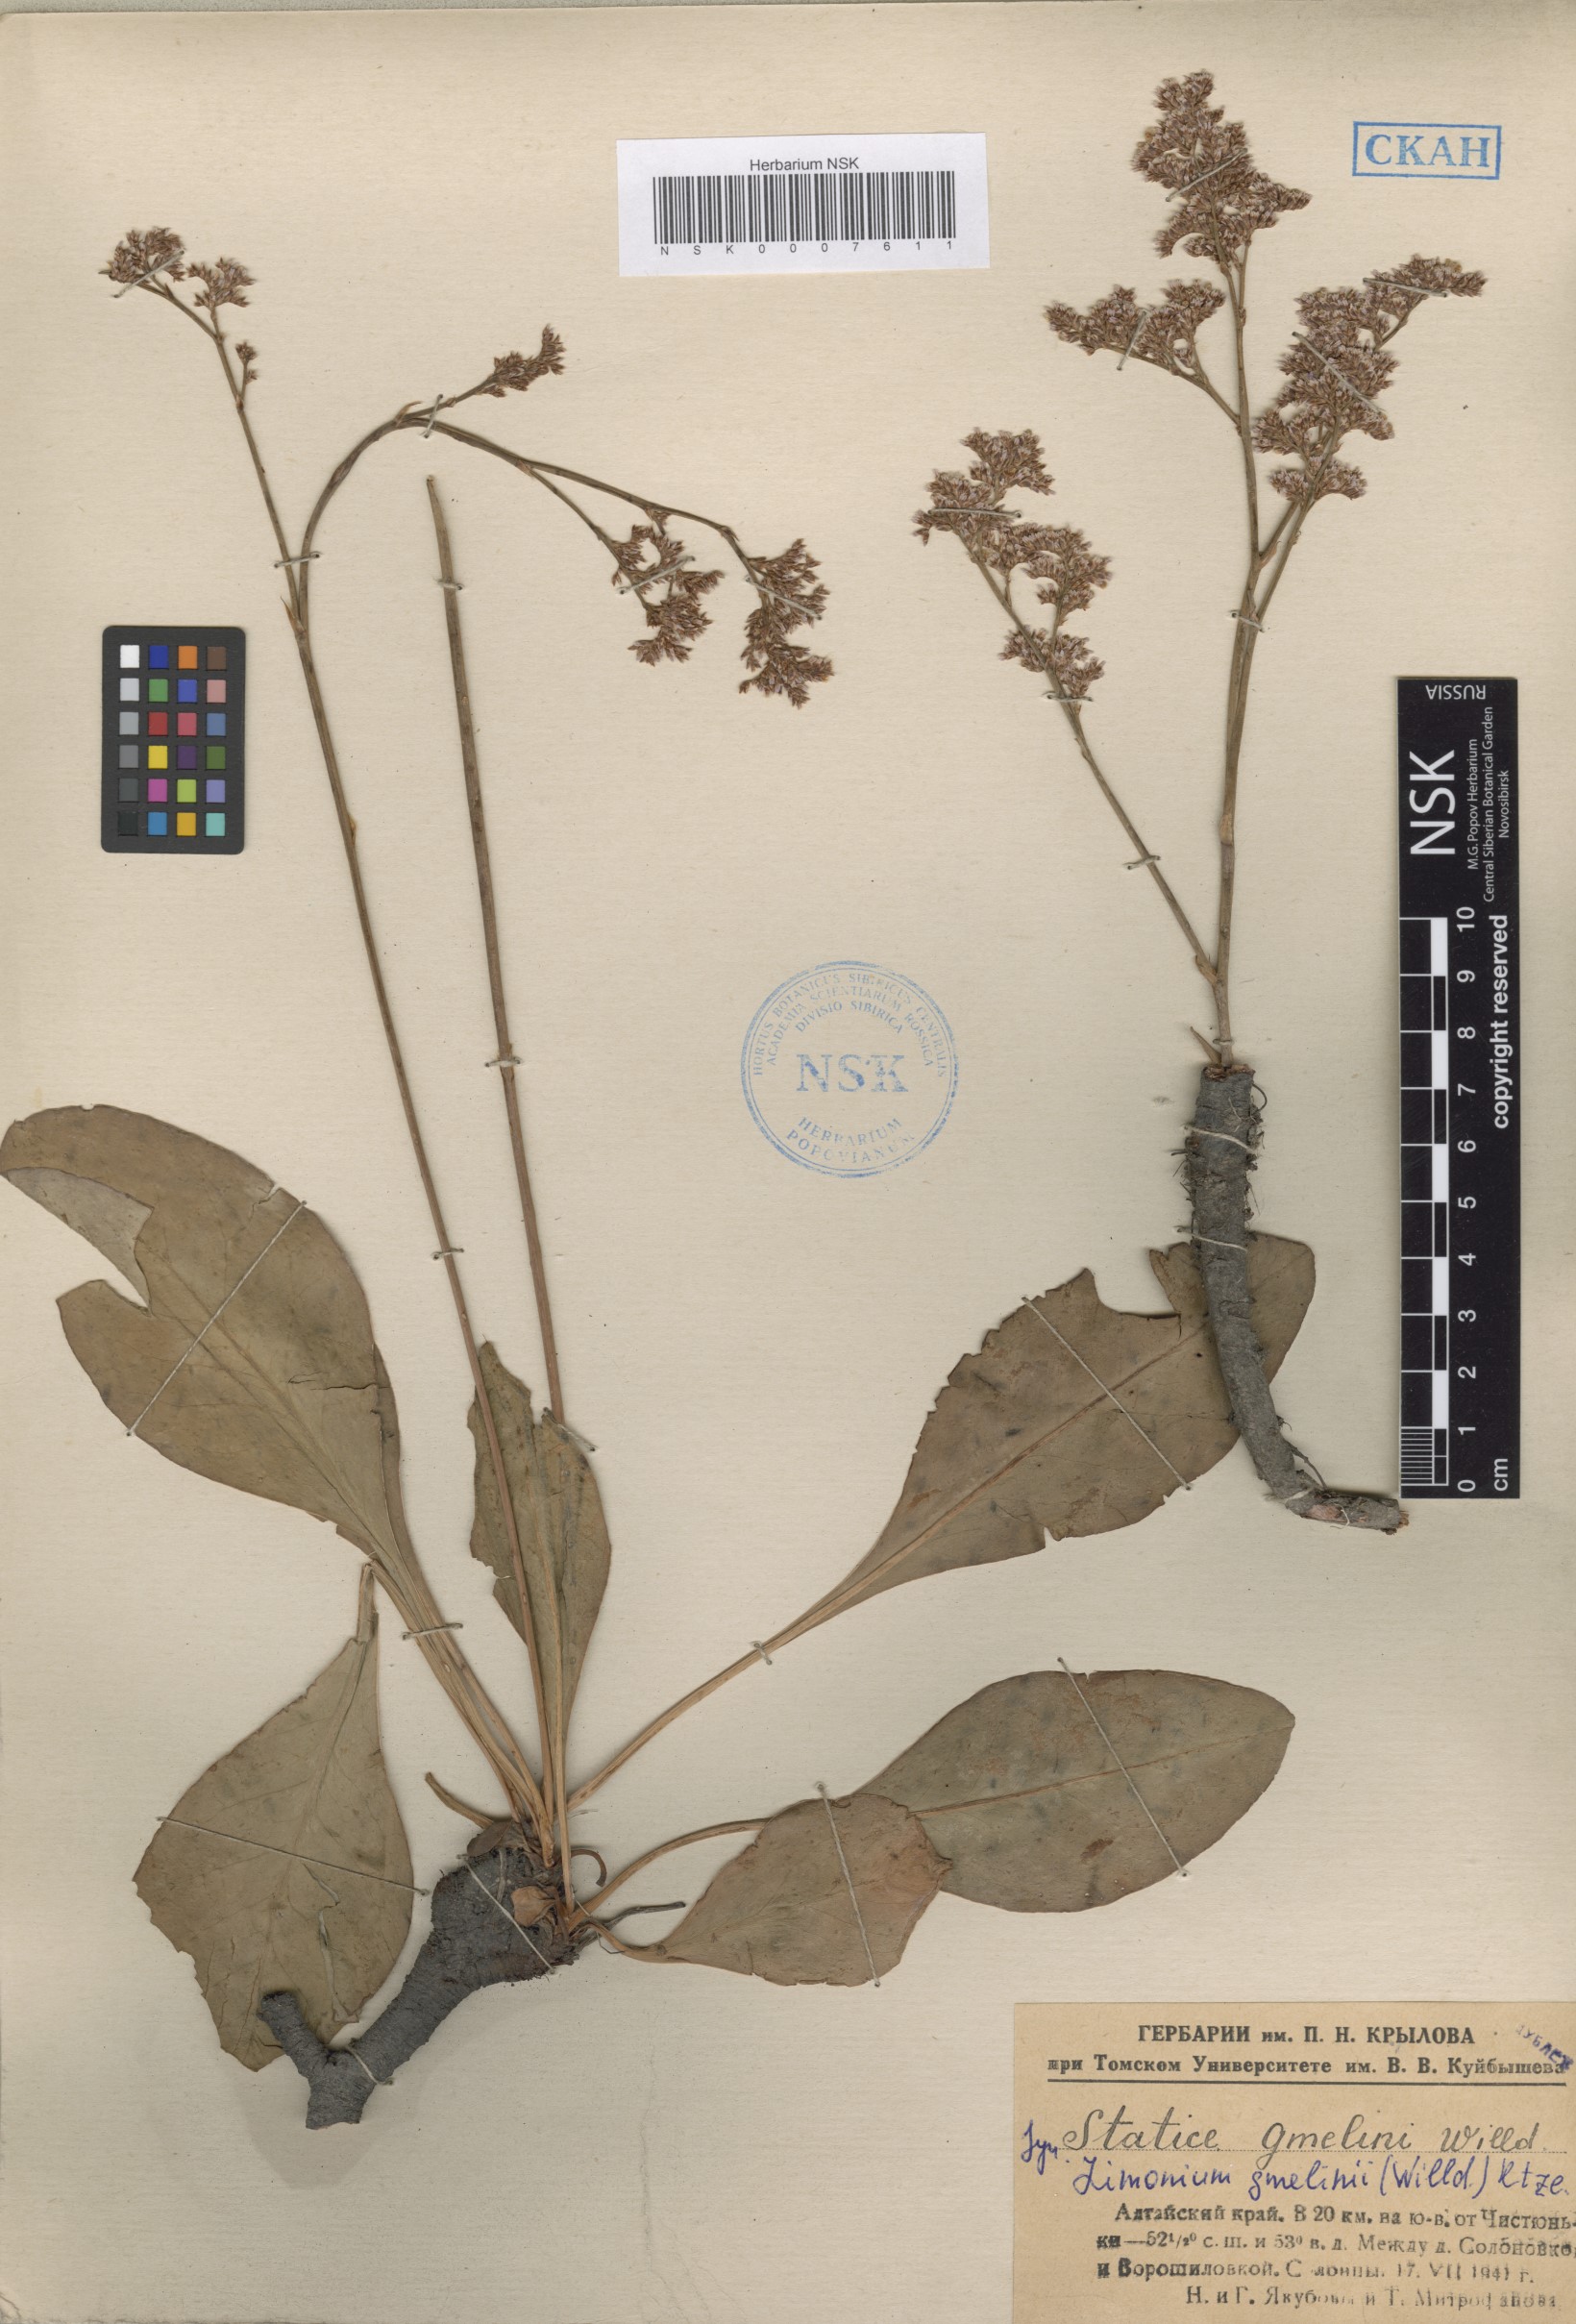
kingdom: Plantae
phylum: Tracheophyta
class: Magnoliopsida
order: Caryophyllales
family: Plumbaginaceae
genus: Limonium
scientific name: Limonium gmelini
